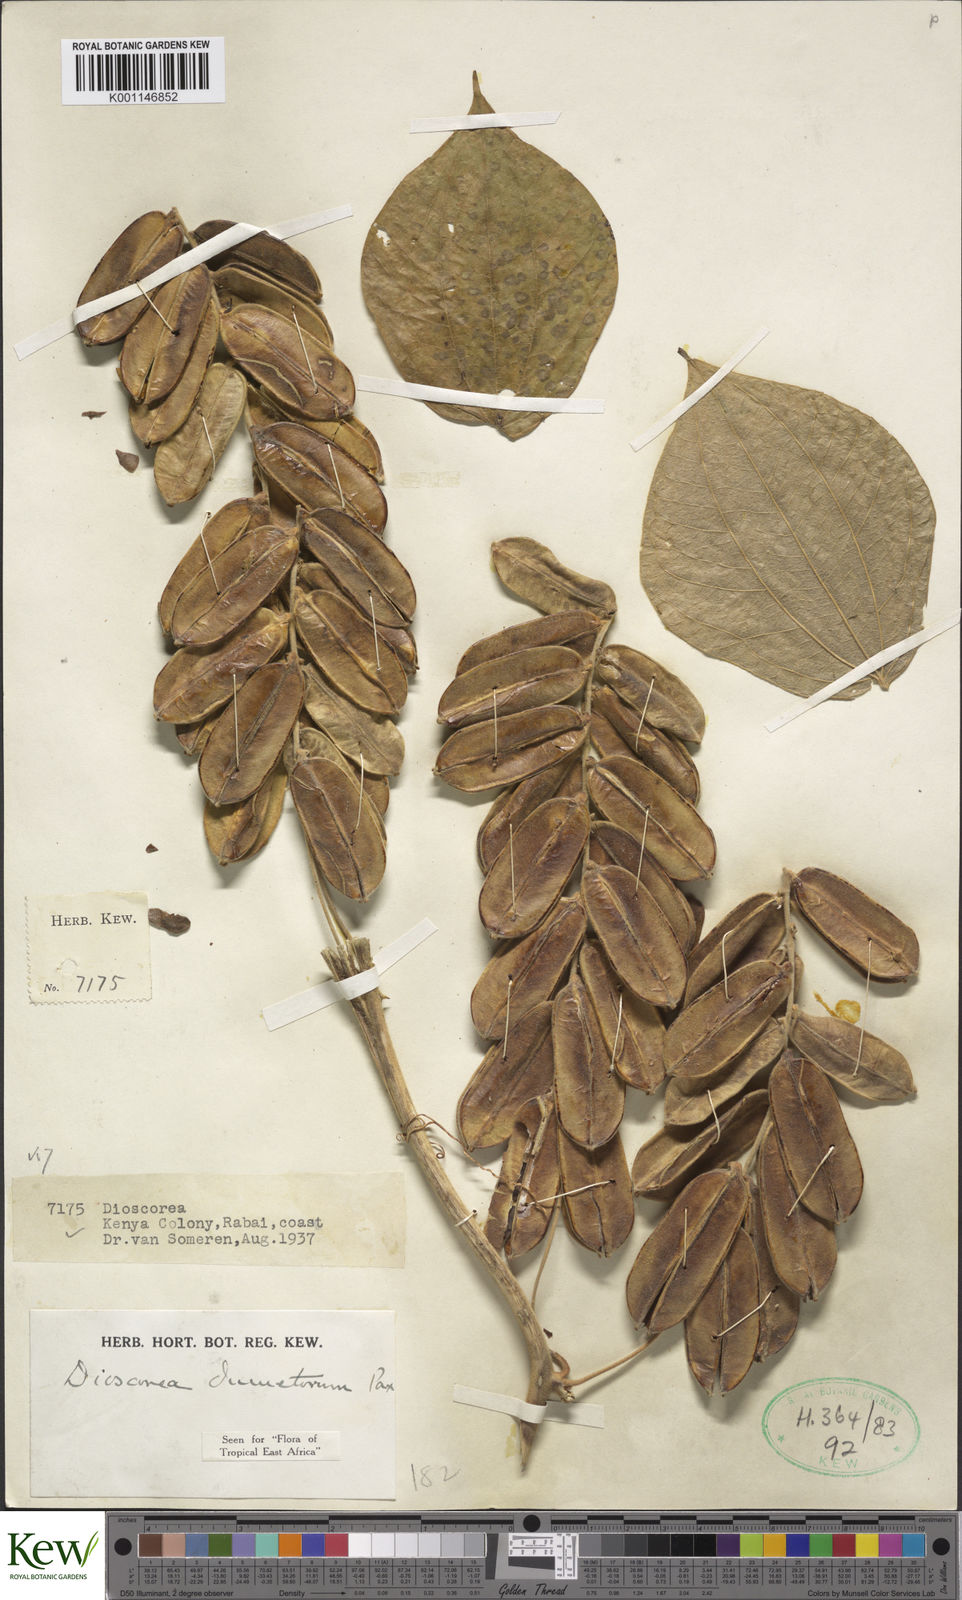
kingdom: Plantae
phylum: Tracheophyta
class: Liliopsida
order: Dioscoreales
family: Dioscoreaceae
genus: Dioscorea
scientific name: Dioscorea dumetorum
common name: African bitter yam
